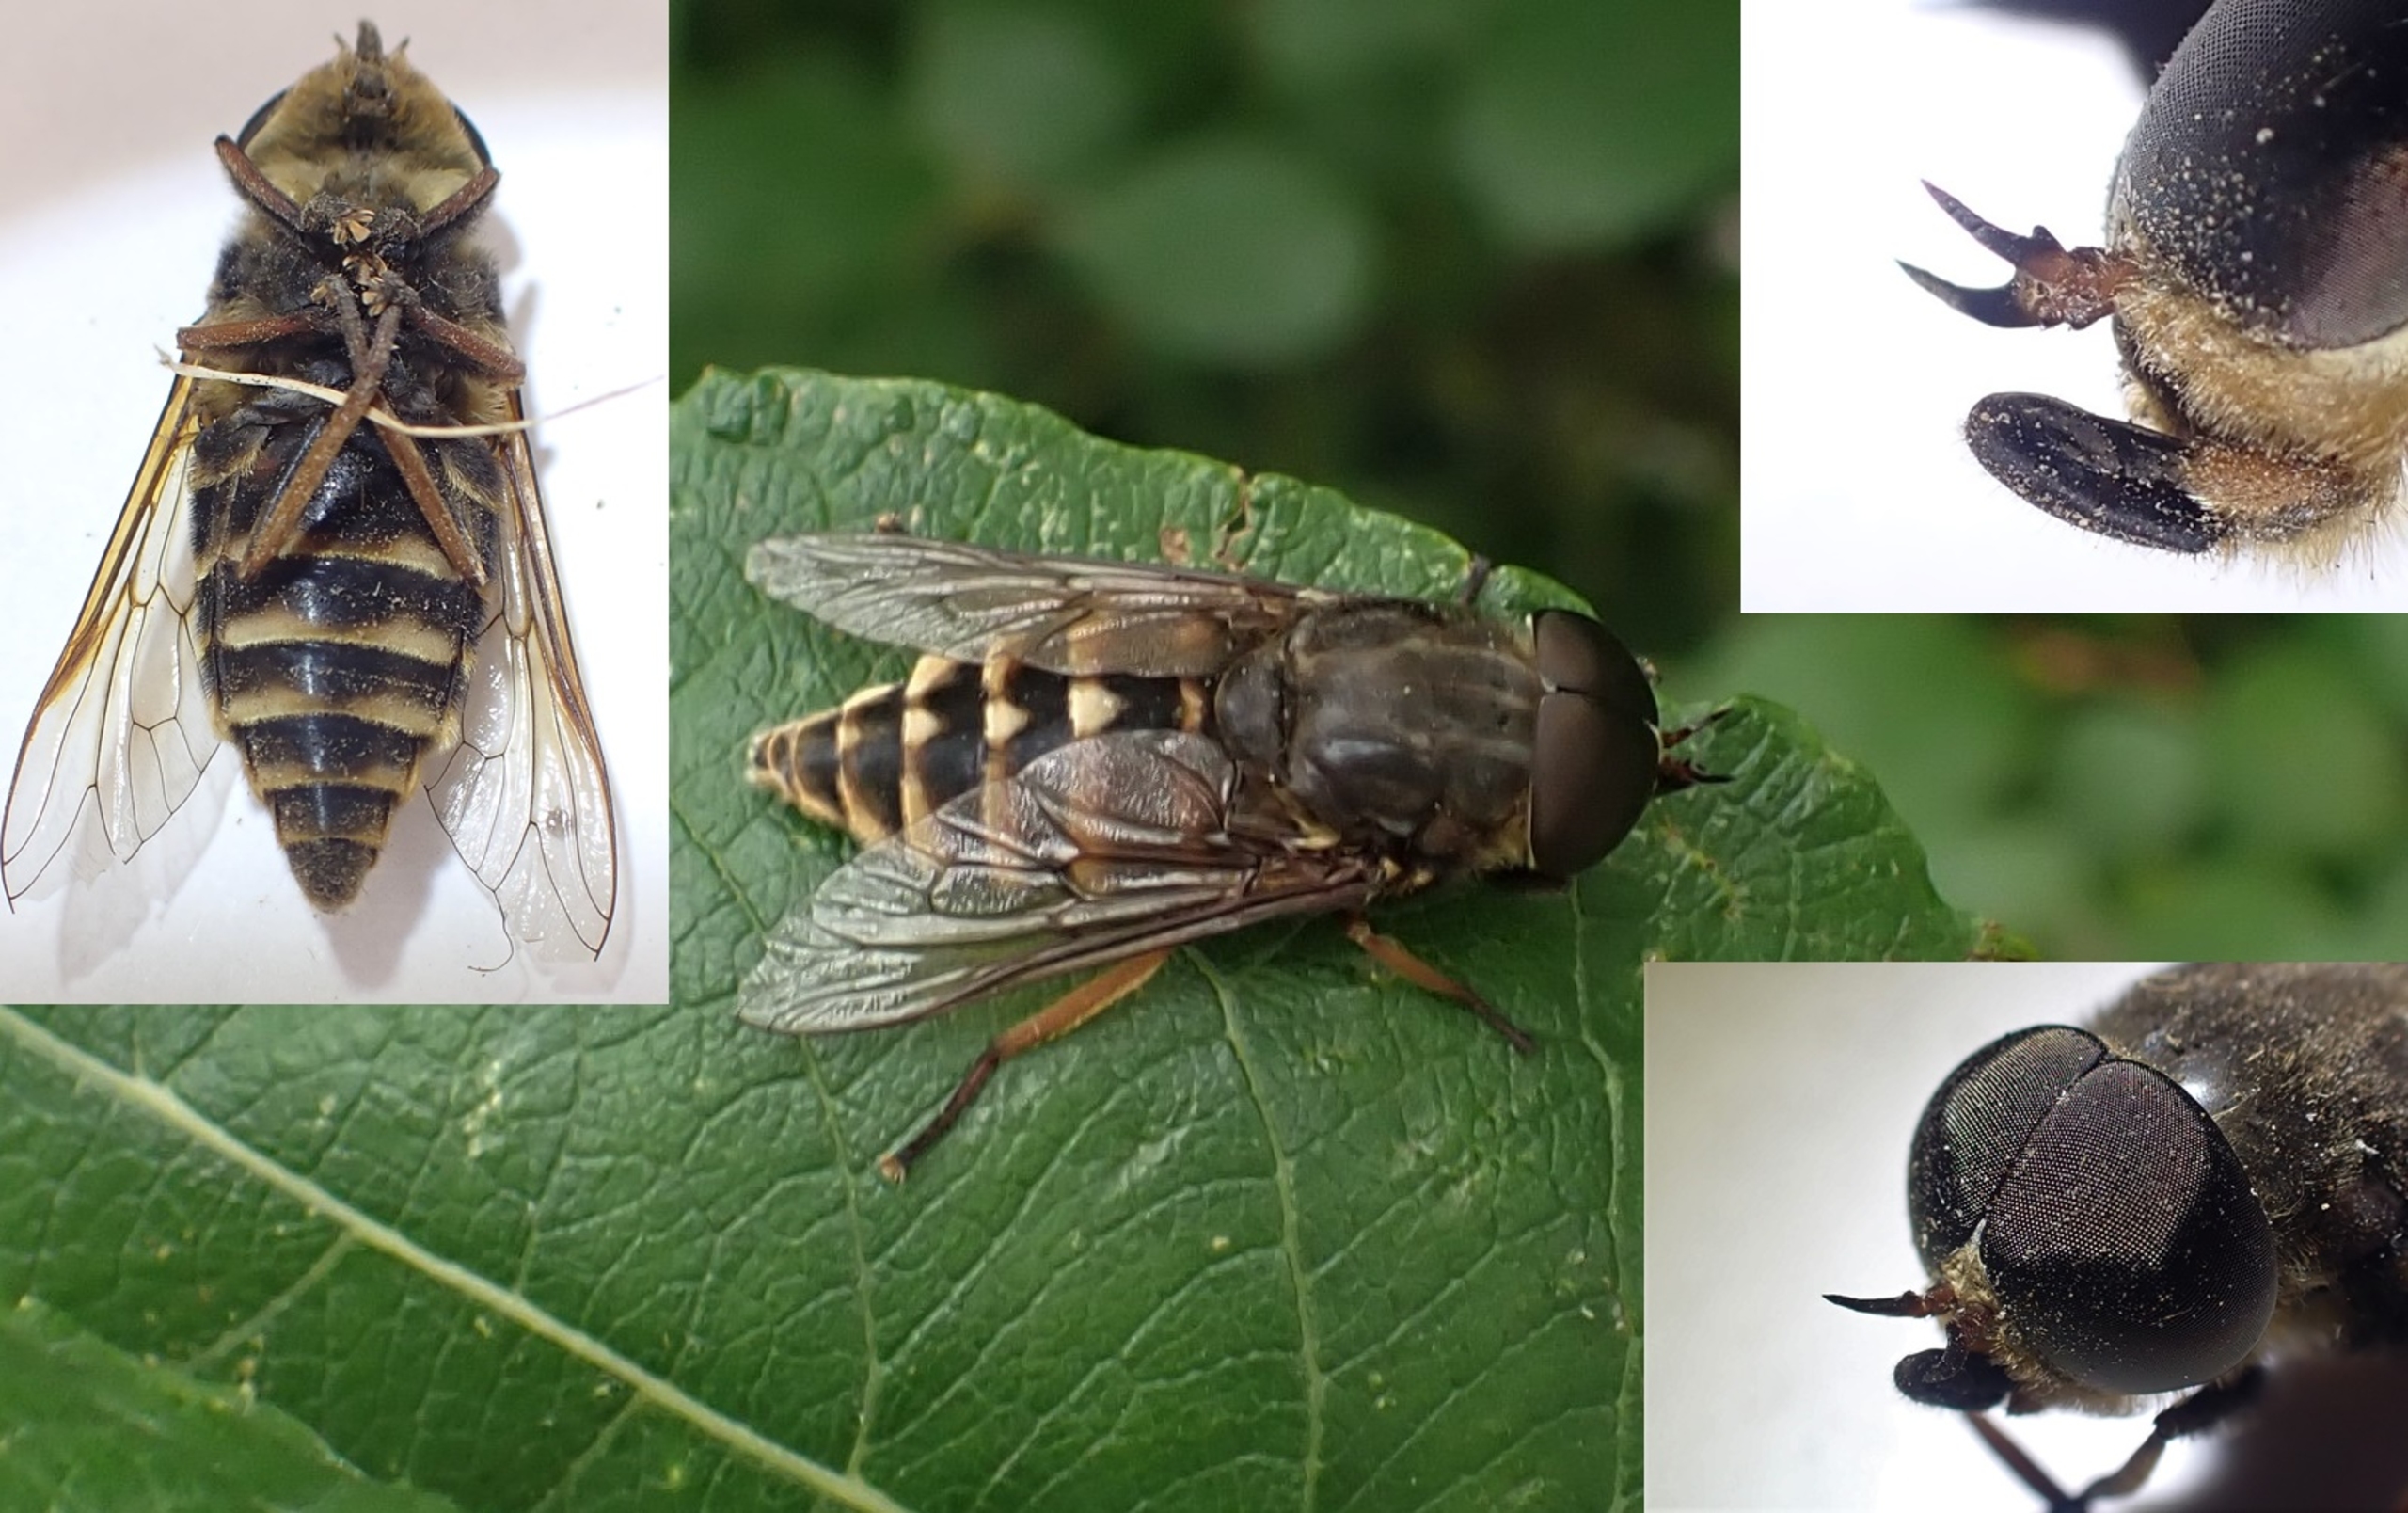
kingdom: Animalia
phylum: Arthropoda
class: Insecta
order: Diptera
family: Tabanidae
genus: Tabanus
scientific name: Tabanus sudeticus
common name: Hesteklæg
